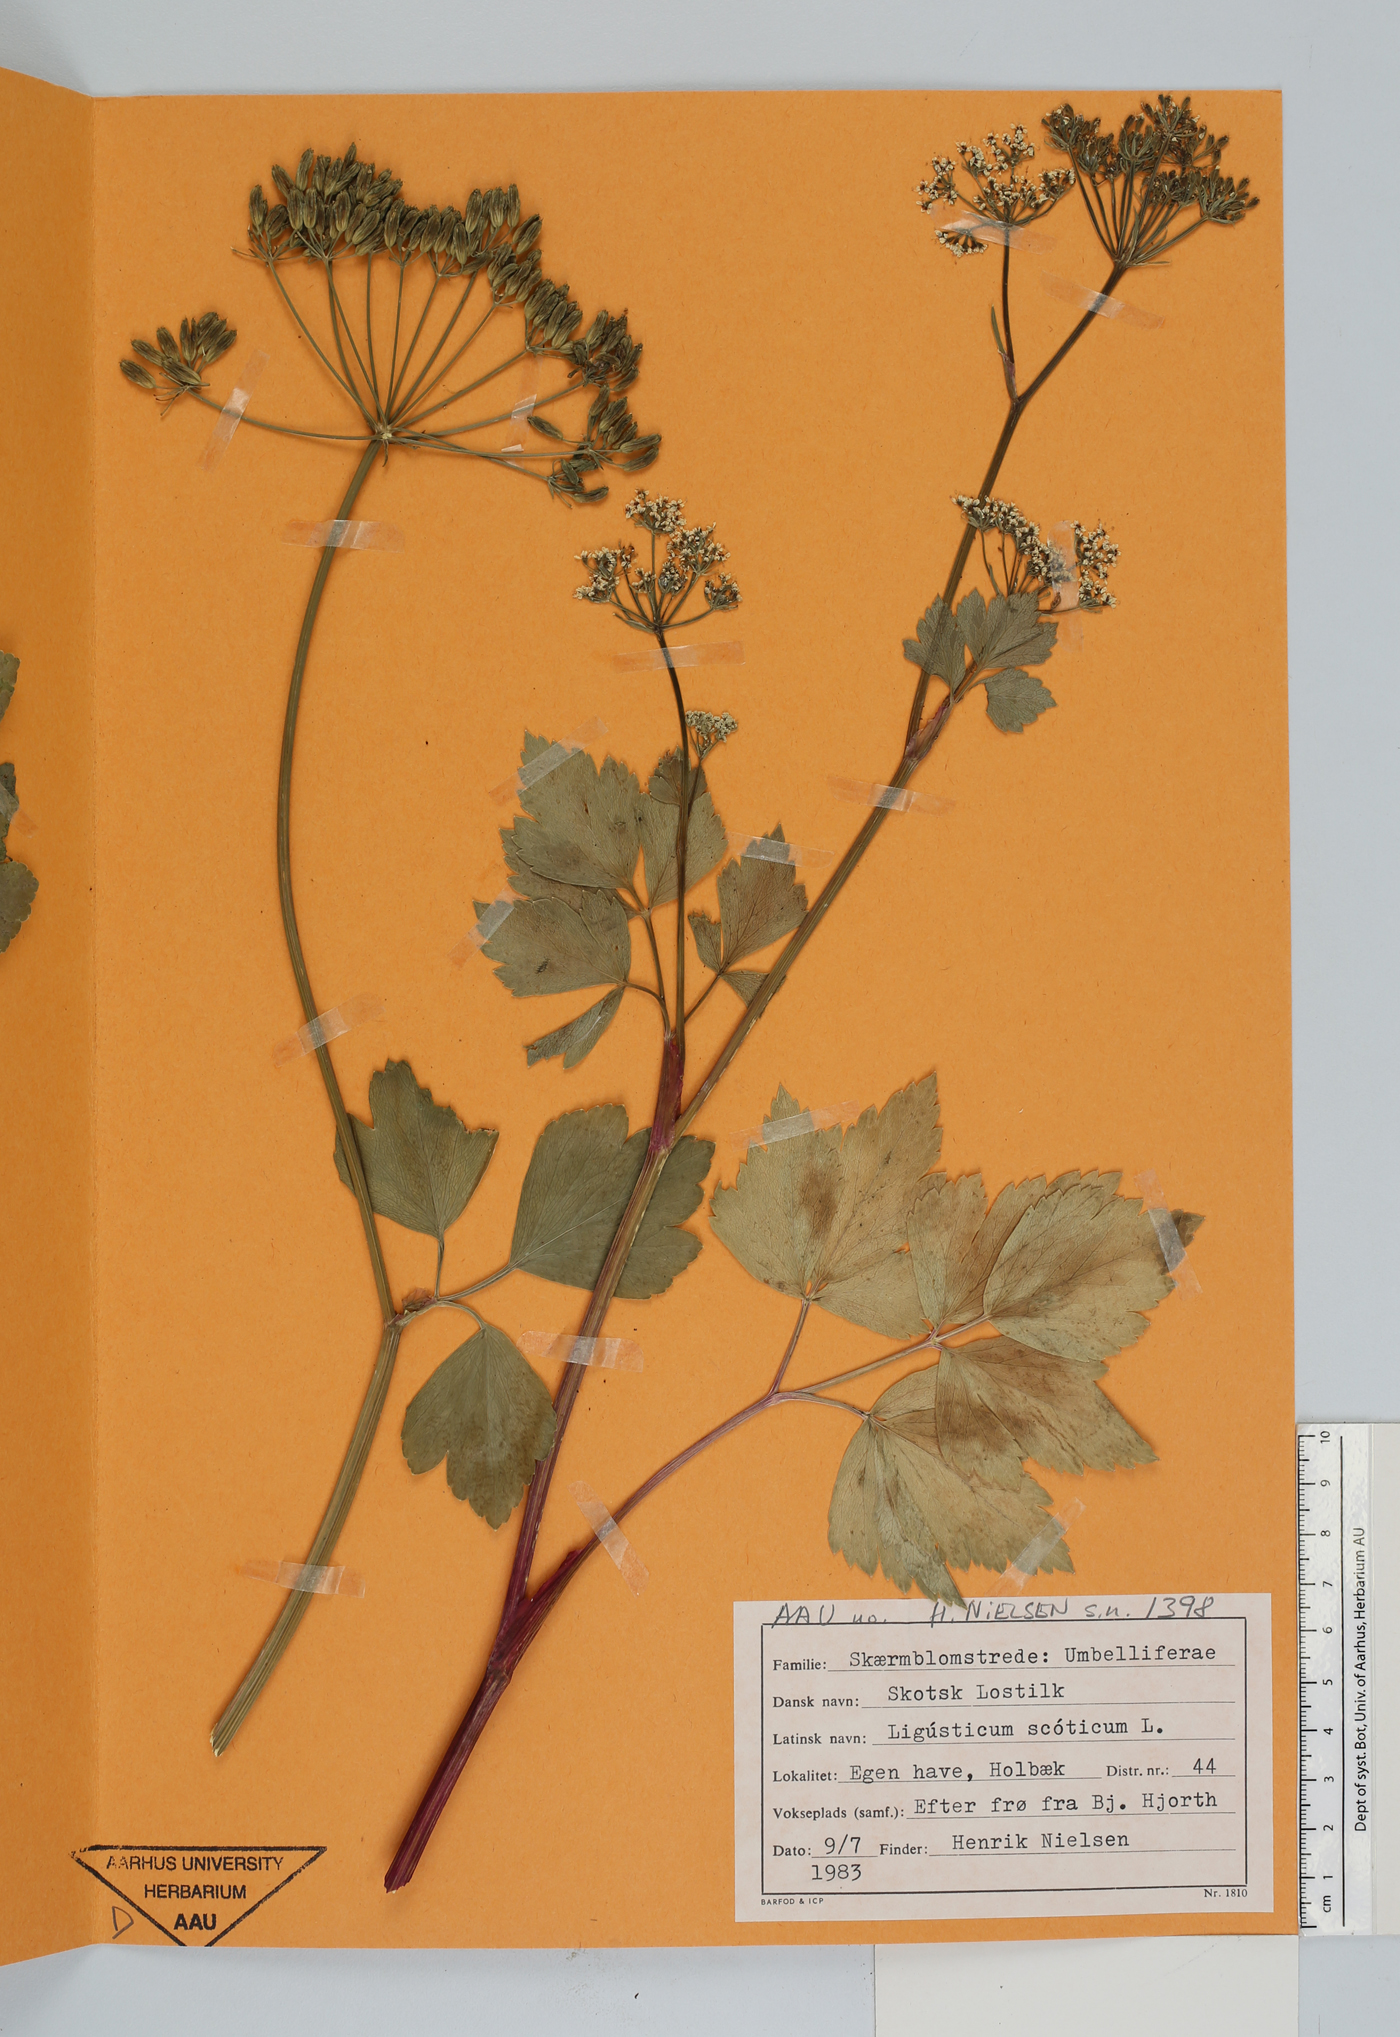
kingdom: Plantae
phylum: Tracheophyta
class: Magnoliopsida
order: Apiales
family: Apiaceae
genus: Ligusticum
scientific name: Ligusticum scothicum
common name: Beach lovage
